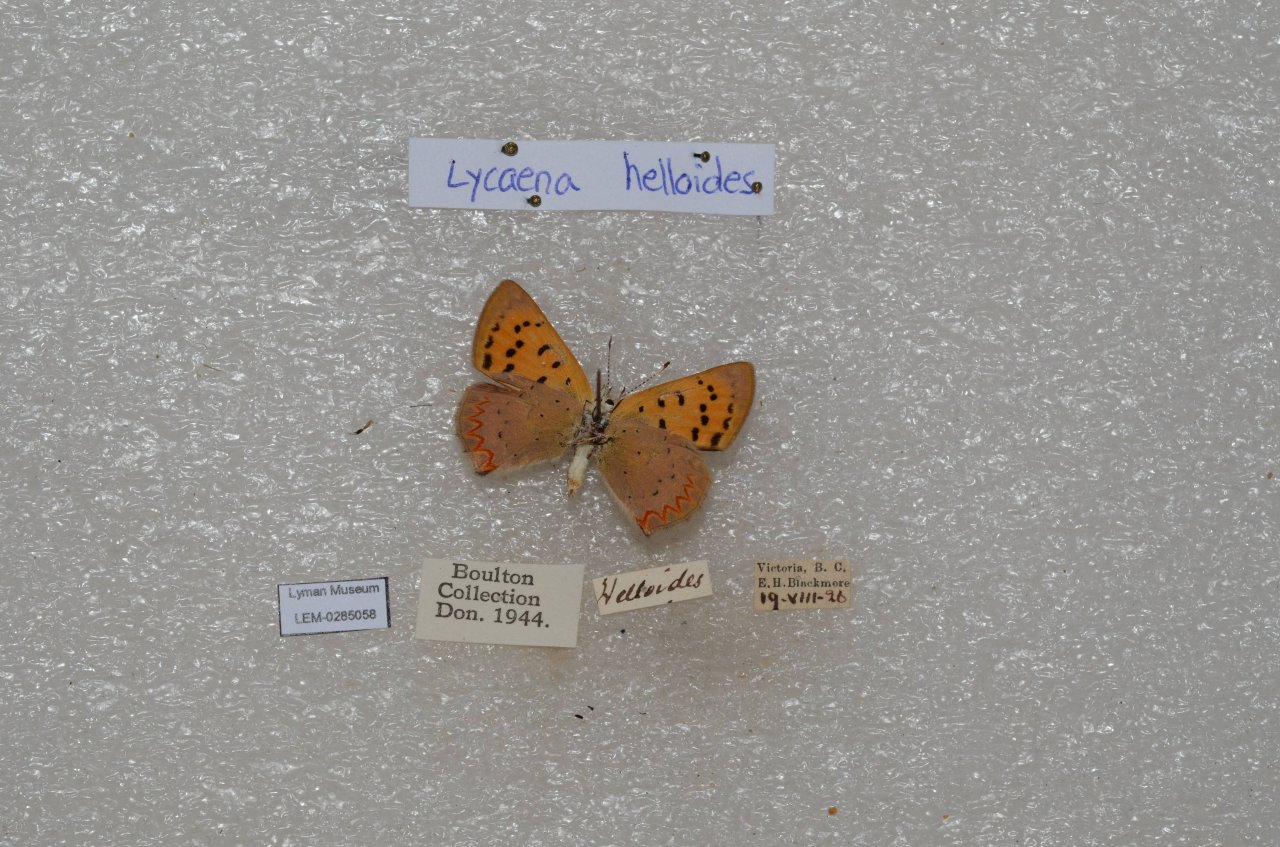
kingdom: Animalia
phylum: Arthropoda
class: Insecta
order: Lepidoptera
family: Sesiidae
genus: Sesia
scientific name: Sesia Lycaena helloides
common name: Purplish Copper
